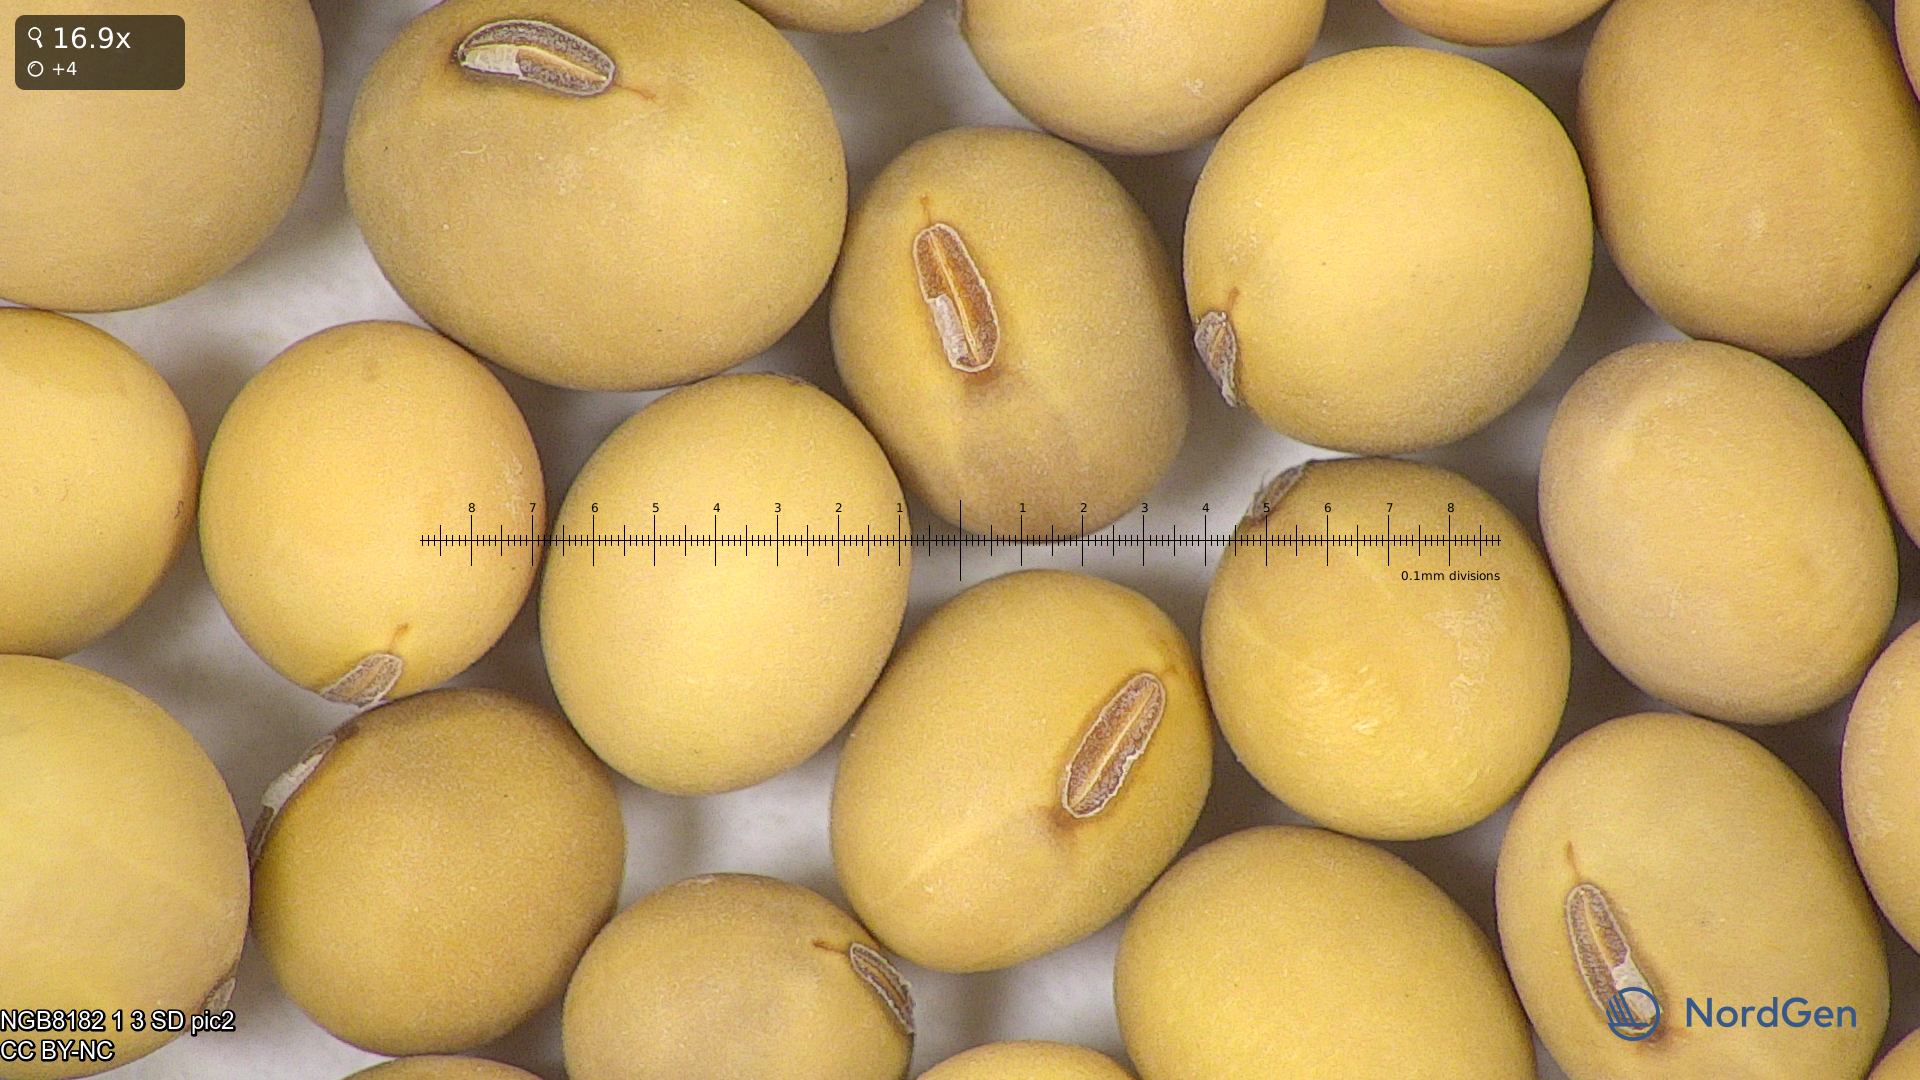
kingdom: Plantae
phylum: Tracheophyta
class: Magnoliopsida
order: Fabales
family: Fabaceae
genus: Glycine
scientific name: Glycine max
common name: Soya-bean
